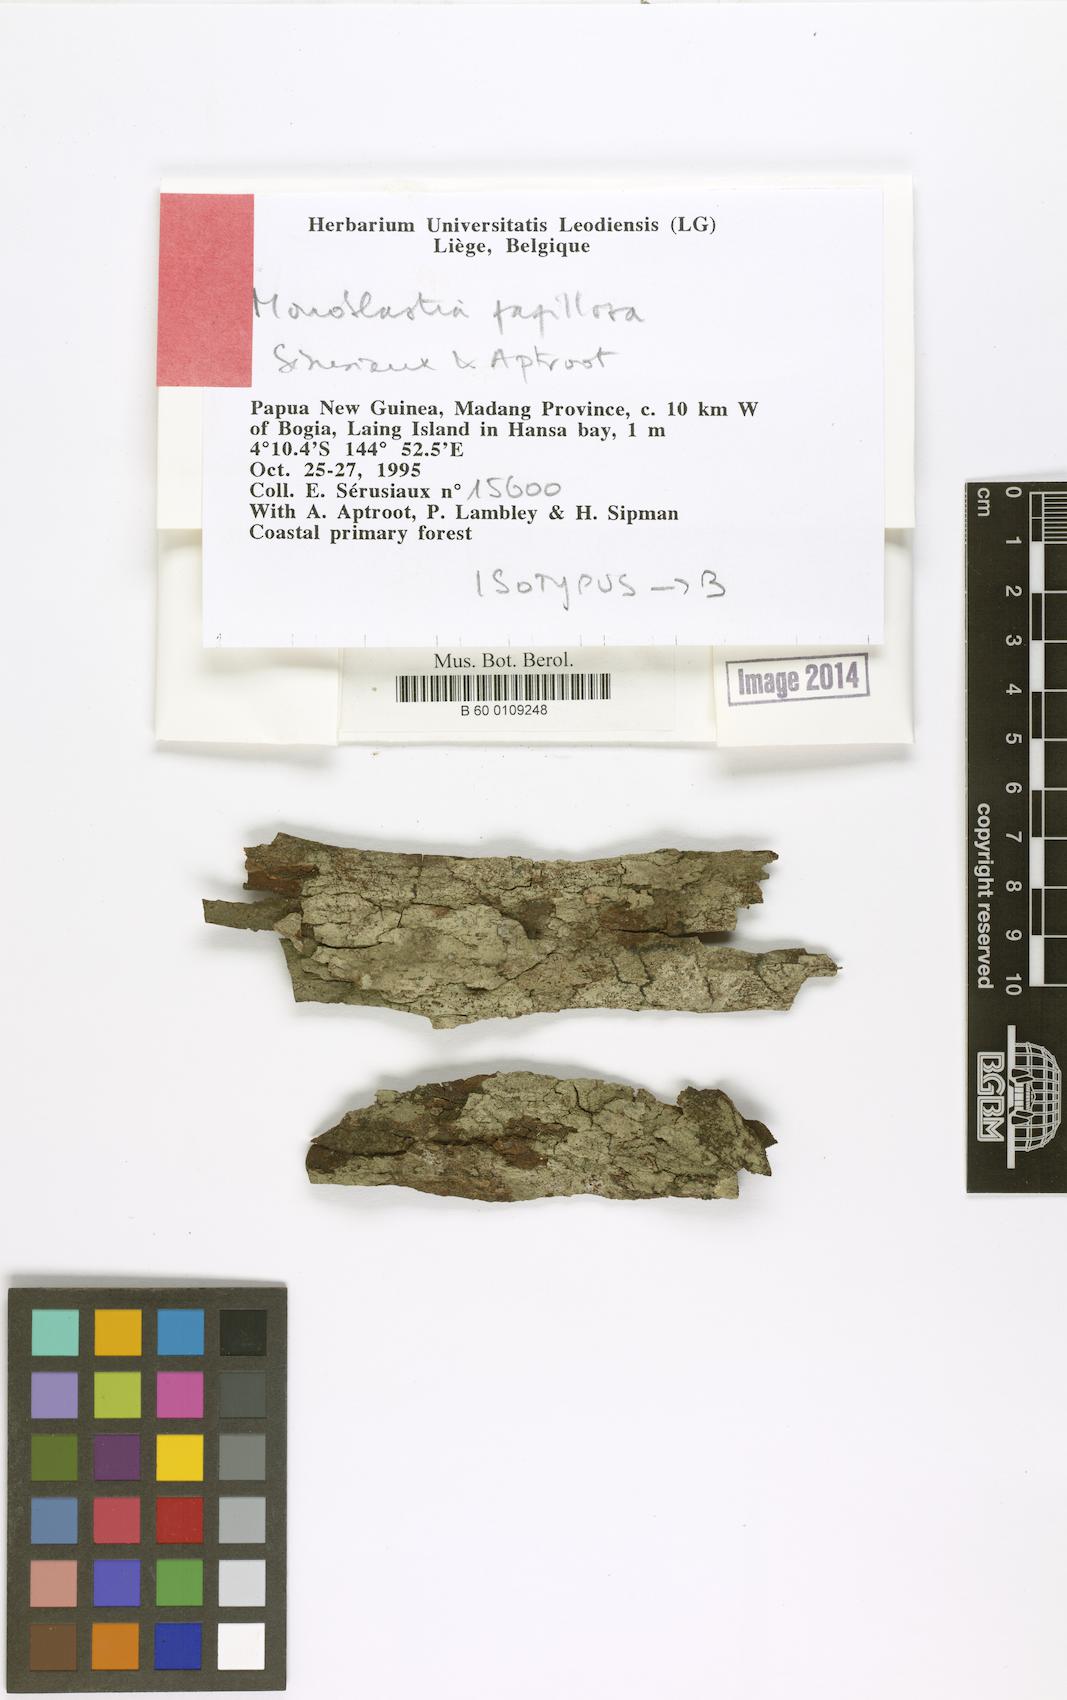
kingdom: Fungi
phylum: Ascomycota
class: Dothideomycetes
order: Monoblastiales
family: Monoblastiaceae
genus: Monoblastia
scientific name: Monoblastia papillosa
